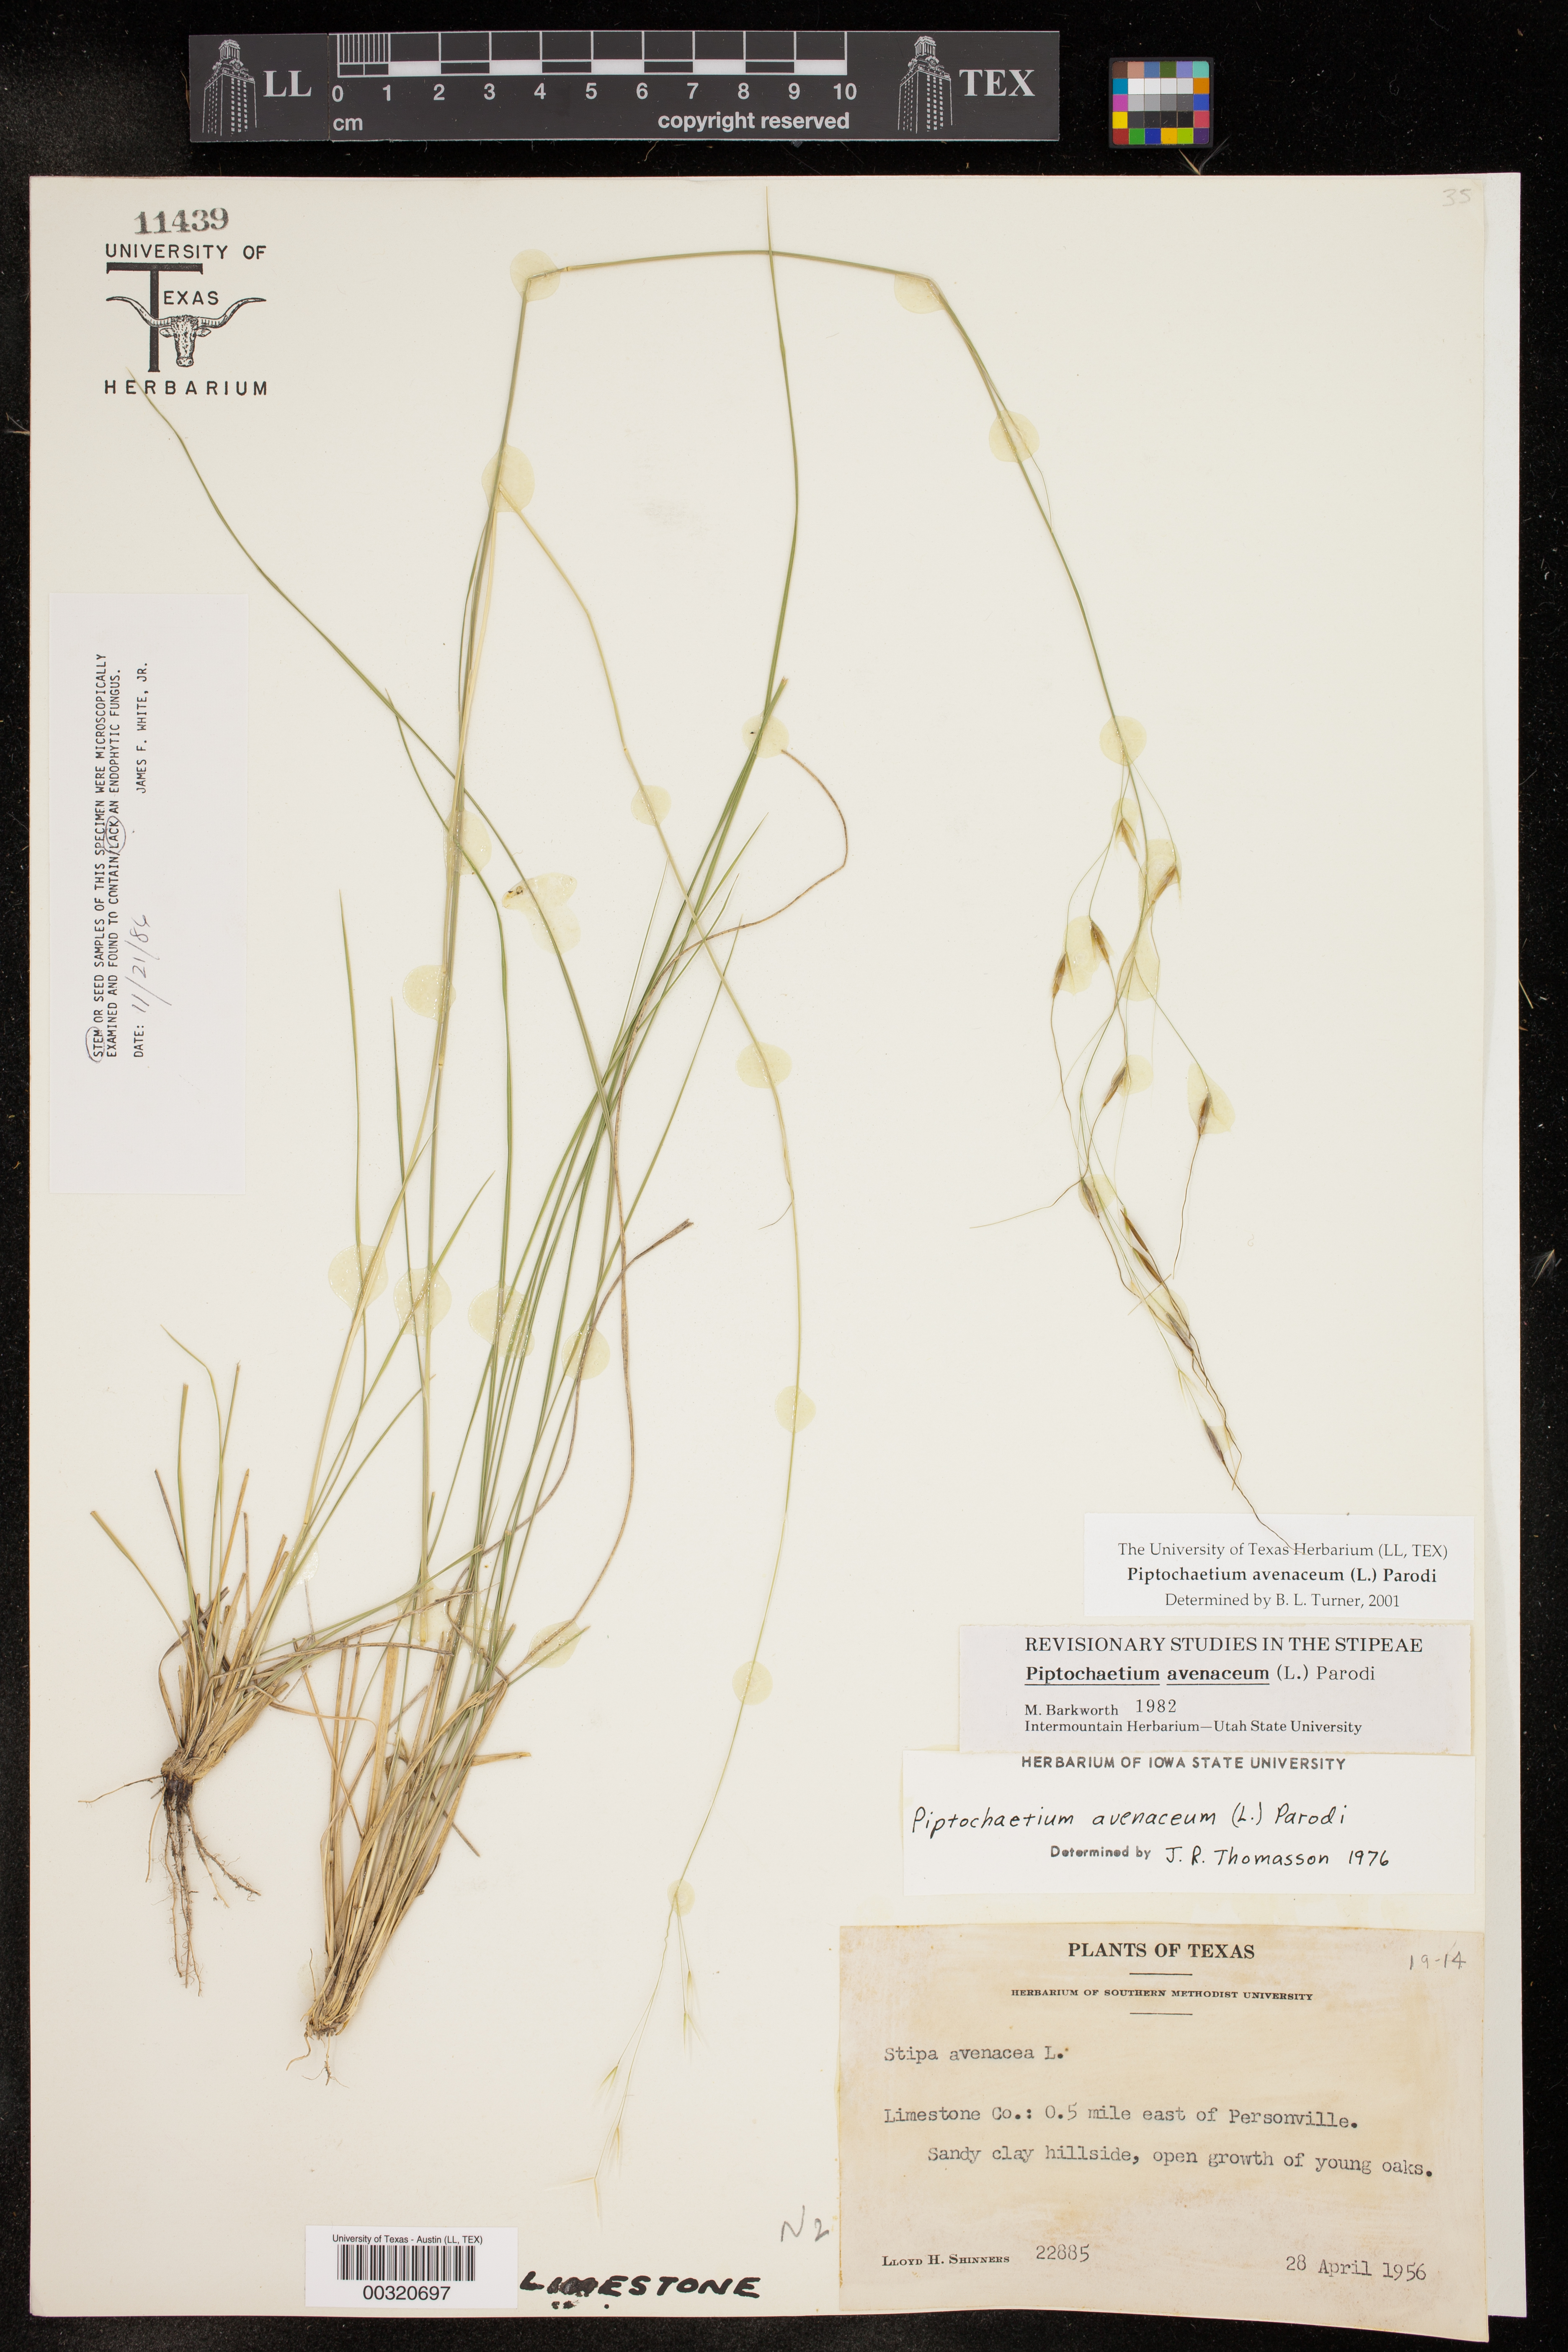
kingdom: Plantae
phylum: Tracheophyta
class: Liliopsida
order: Poales
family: Poaceae
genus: Piptochaetium
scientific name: Piptochaetium avenaceum
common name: Black bunchgrass
